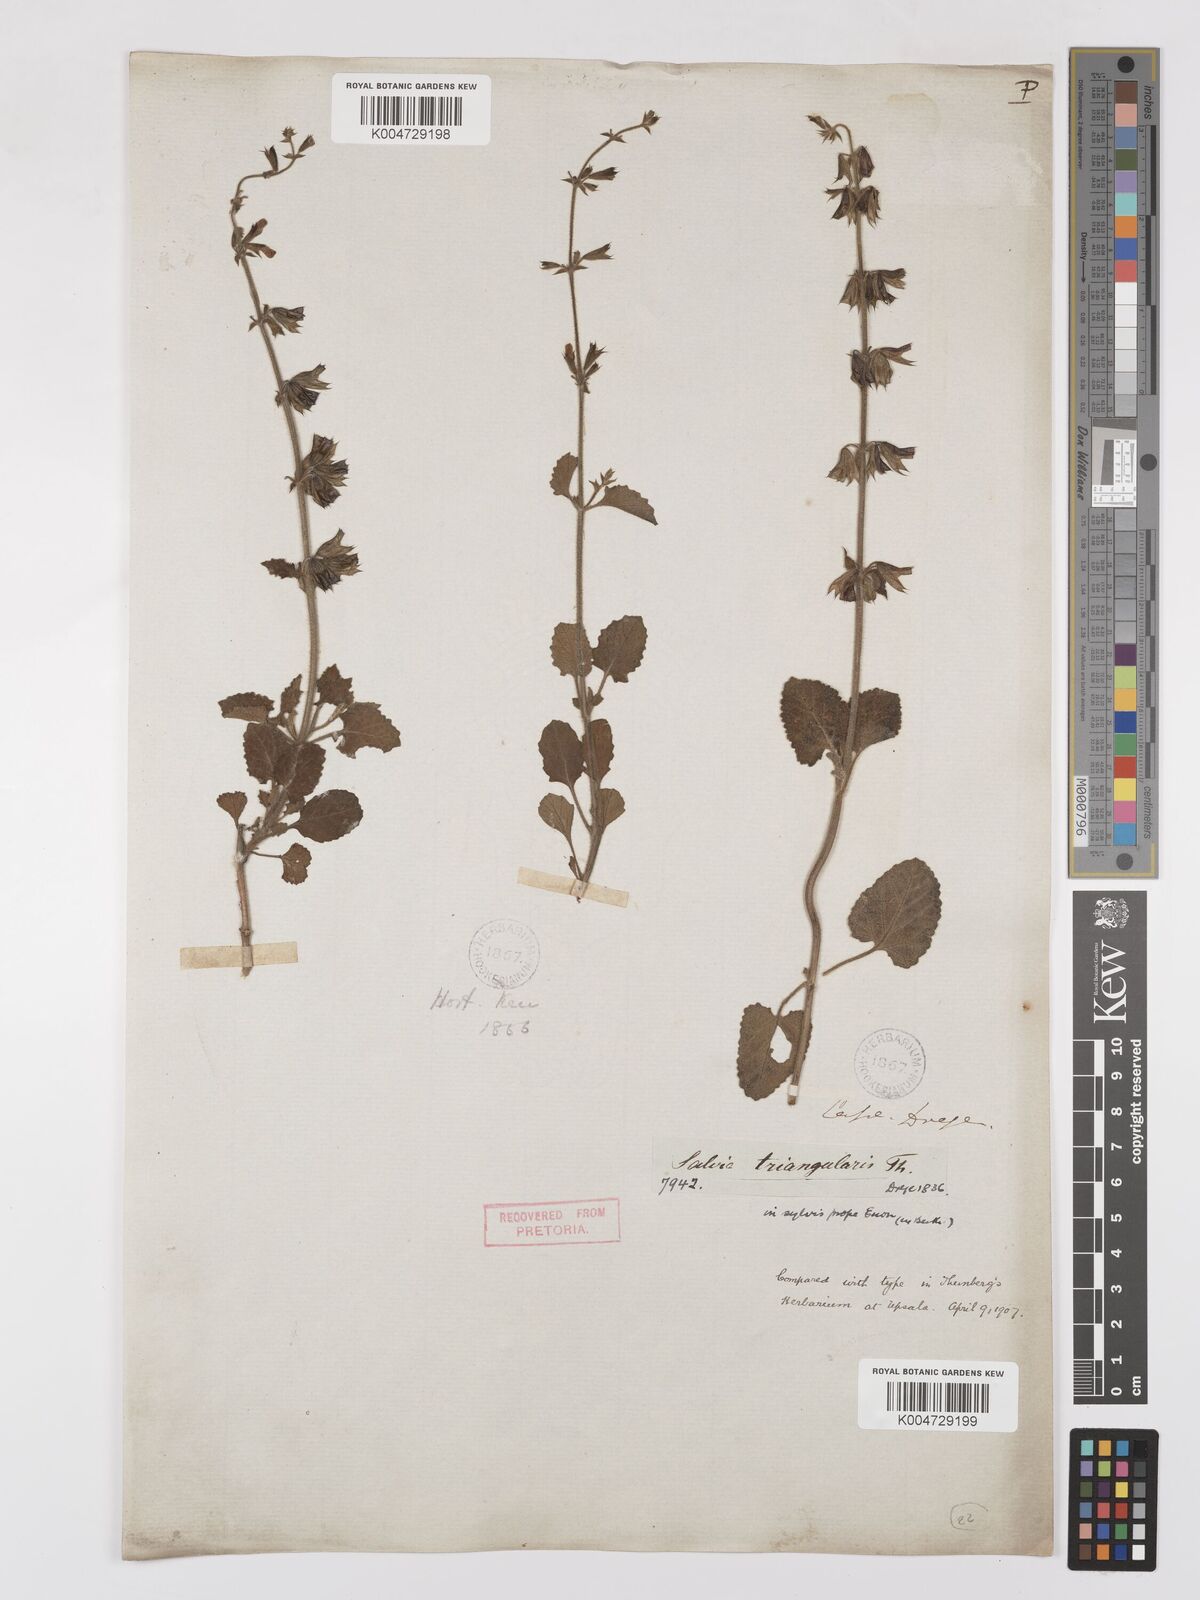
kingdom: Plantae
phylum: Tracheophyta
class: Magnoliopsida
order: Lamiales
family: Lamiaceae
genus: Salvia
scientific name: Salvia triangularis
